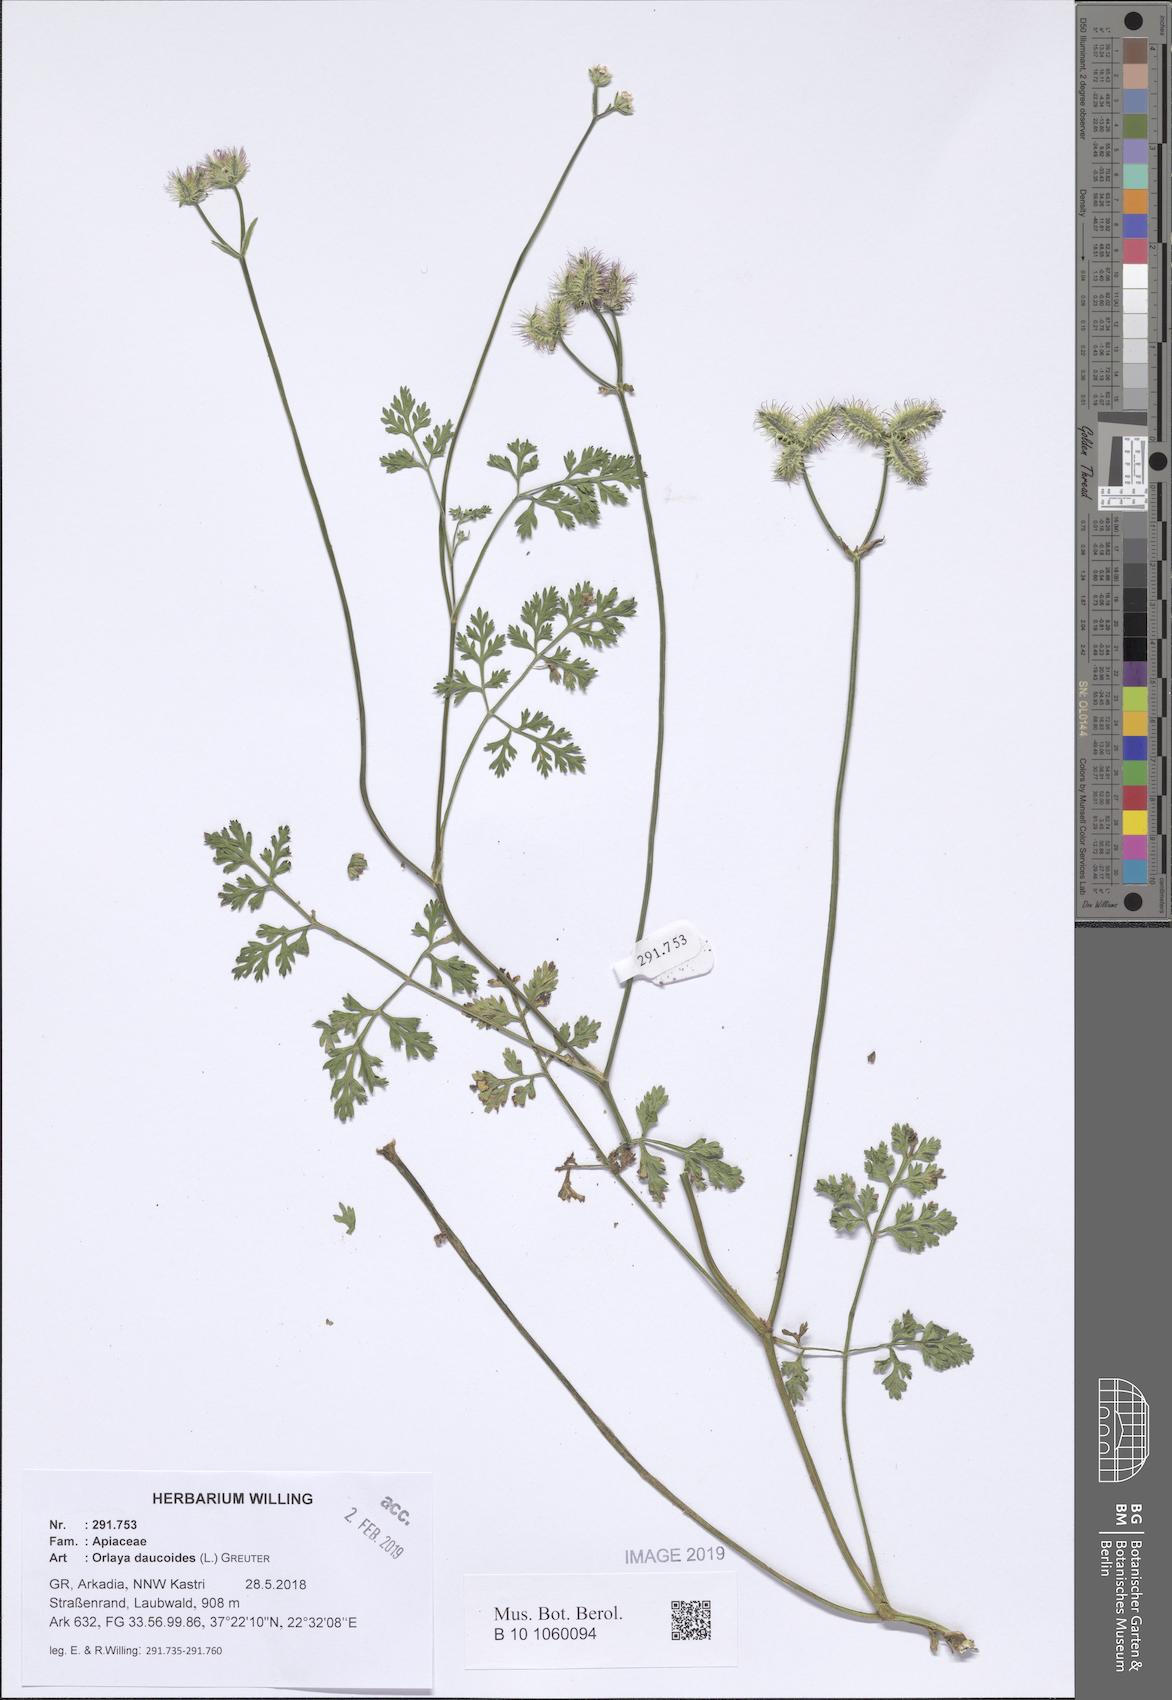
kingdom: Plantae
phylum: Tracheophyta
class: Magnoliopsida
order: Apiales
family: Apiaceae
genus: Orlaya
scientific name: Orlaya daucoides
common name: Flat-fruit orlaya
